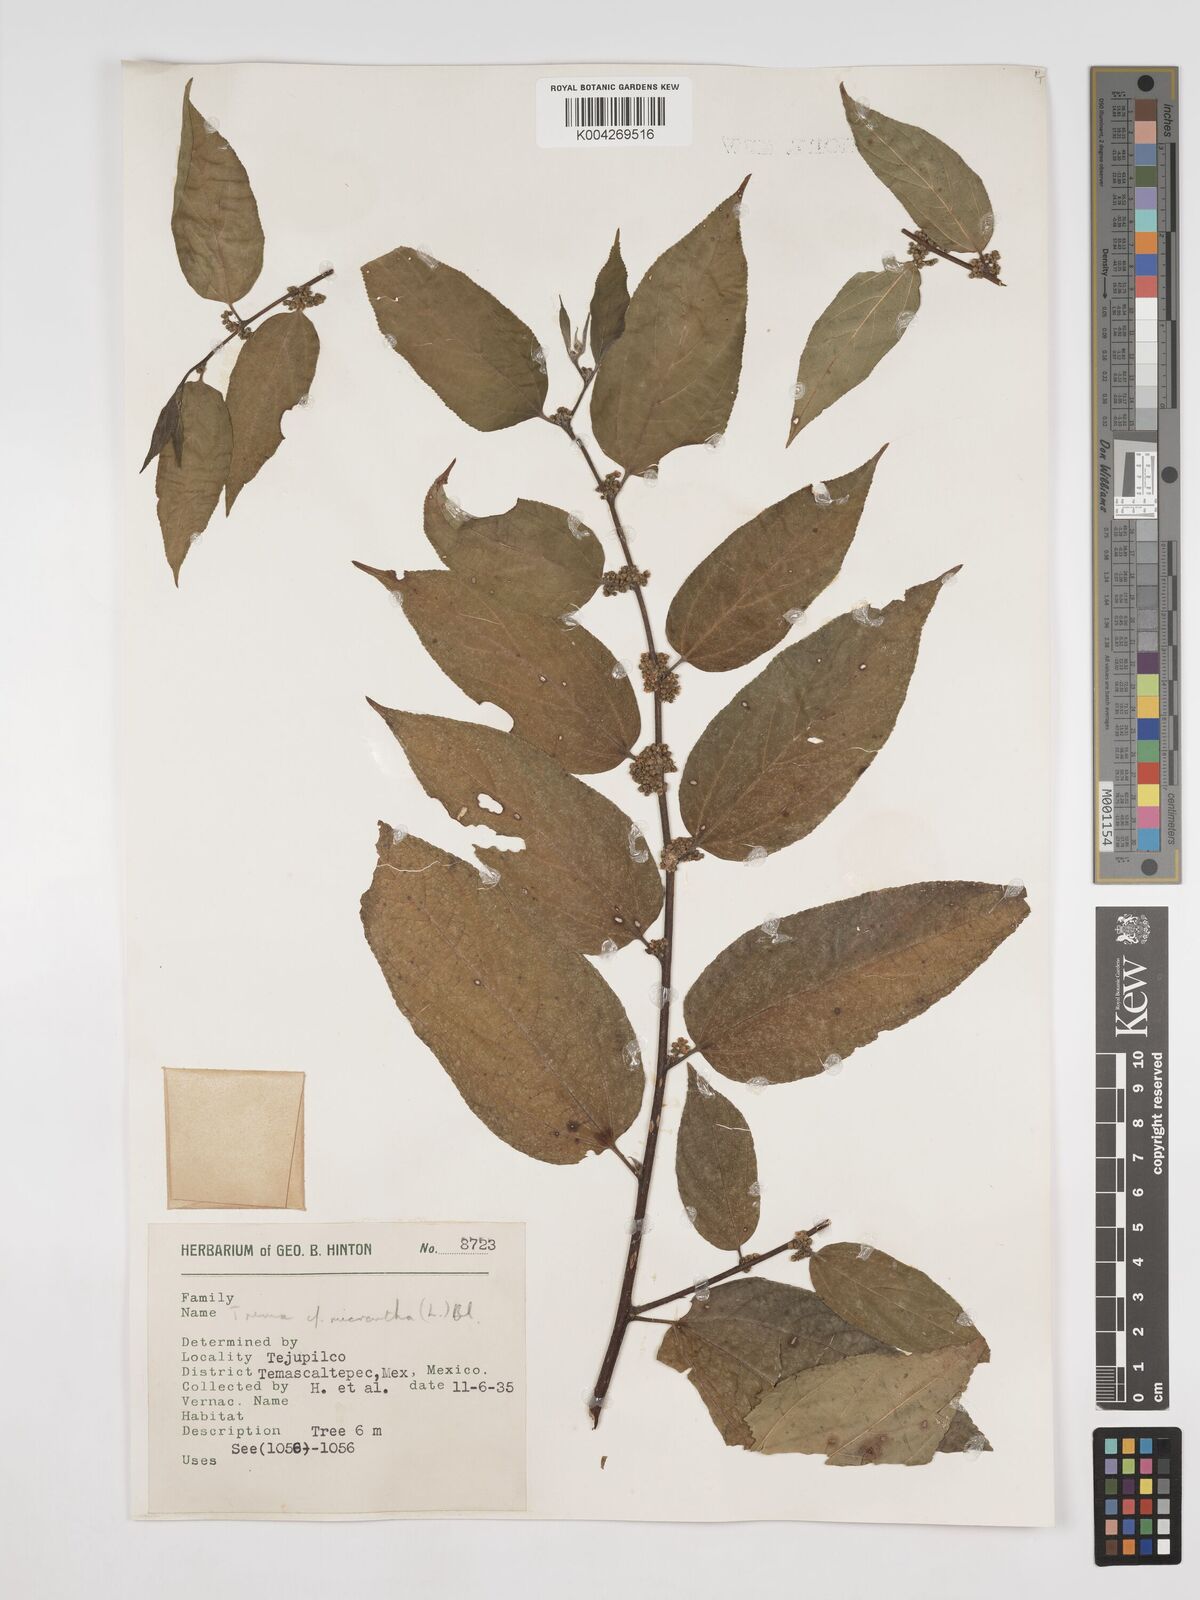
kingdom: Plantae
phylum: Tracheophyta
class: Magnoliopsida
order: Rosales
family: Cannabaceae
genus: Trema
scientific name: Trema micranthum
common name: Jamaican nettletree
